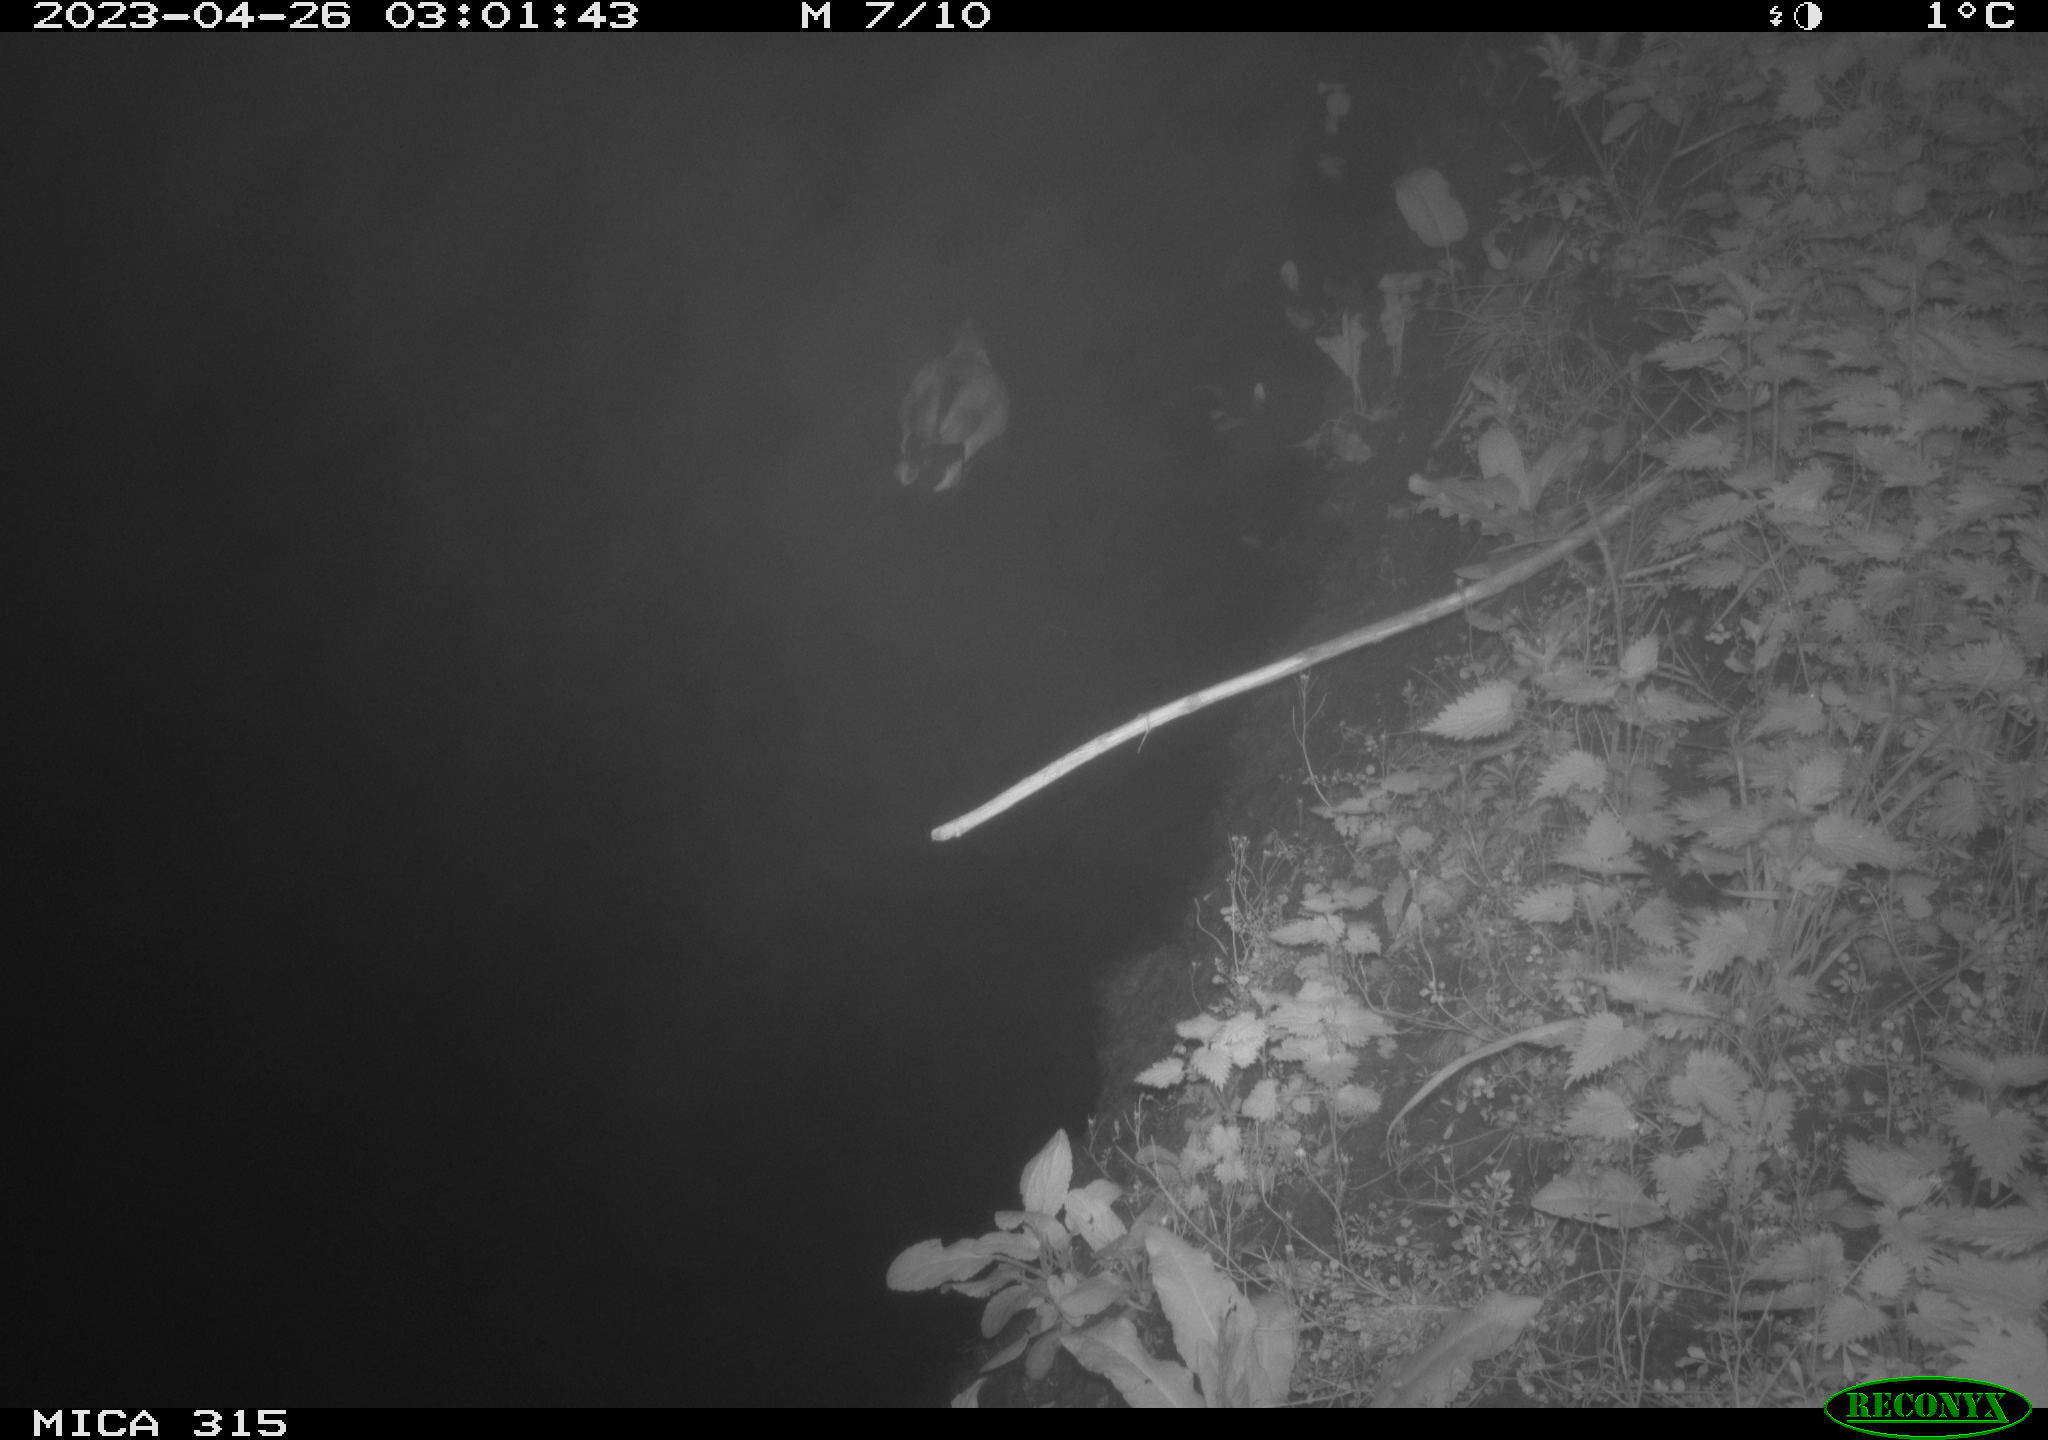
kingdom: Animalia
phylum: Chordata
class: Aves
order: Anseriformes
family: Anatidae
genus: Anas
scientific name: Anas
